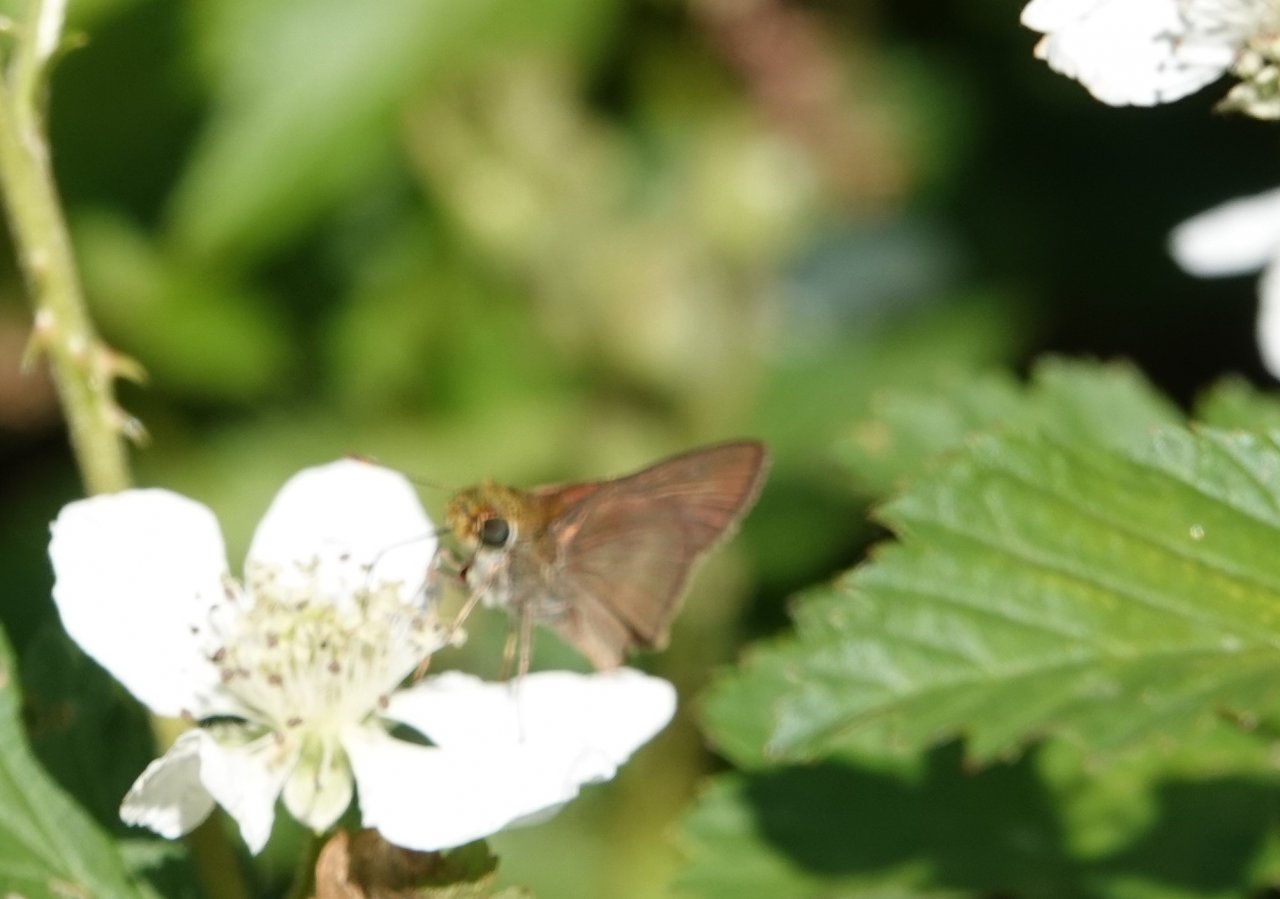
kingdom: Animalia
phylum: Arthropoda
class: Insecta
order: Lepidoptera
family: Hesperiidae
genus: Polites
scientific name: Polites
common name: Crossline Skipper
